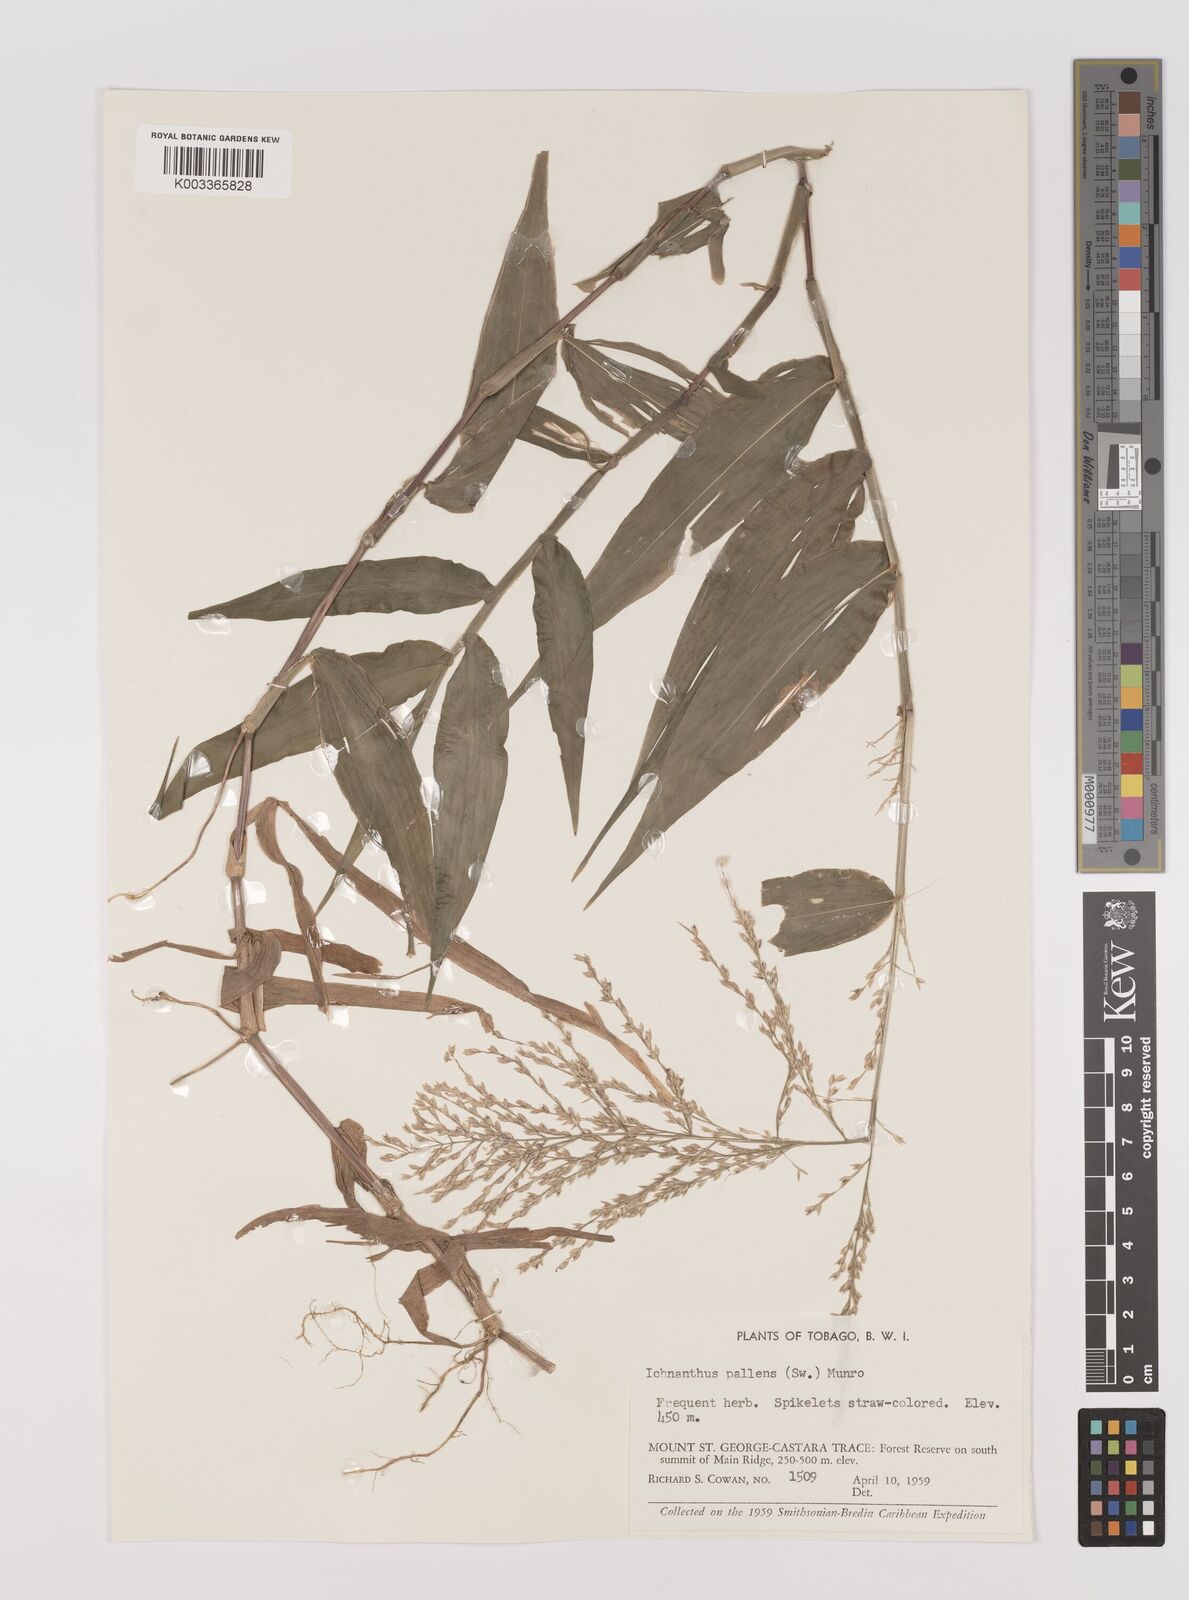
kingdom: Plantae
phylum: Tracheophyta
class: Liliopsida
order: Poales
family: Poaceae
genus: Ichnanthus
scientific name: Ichnanthus pallens
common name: Water grass
